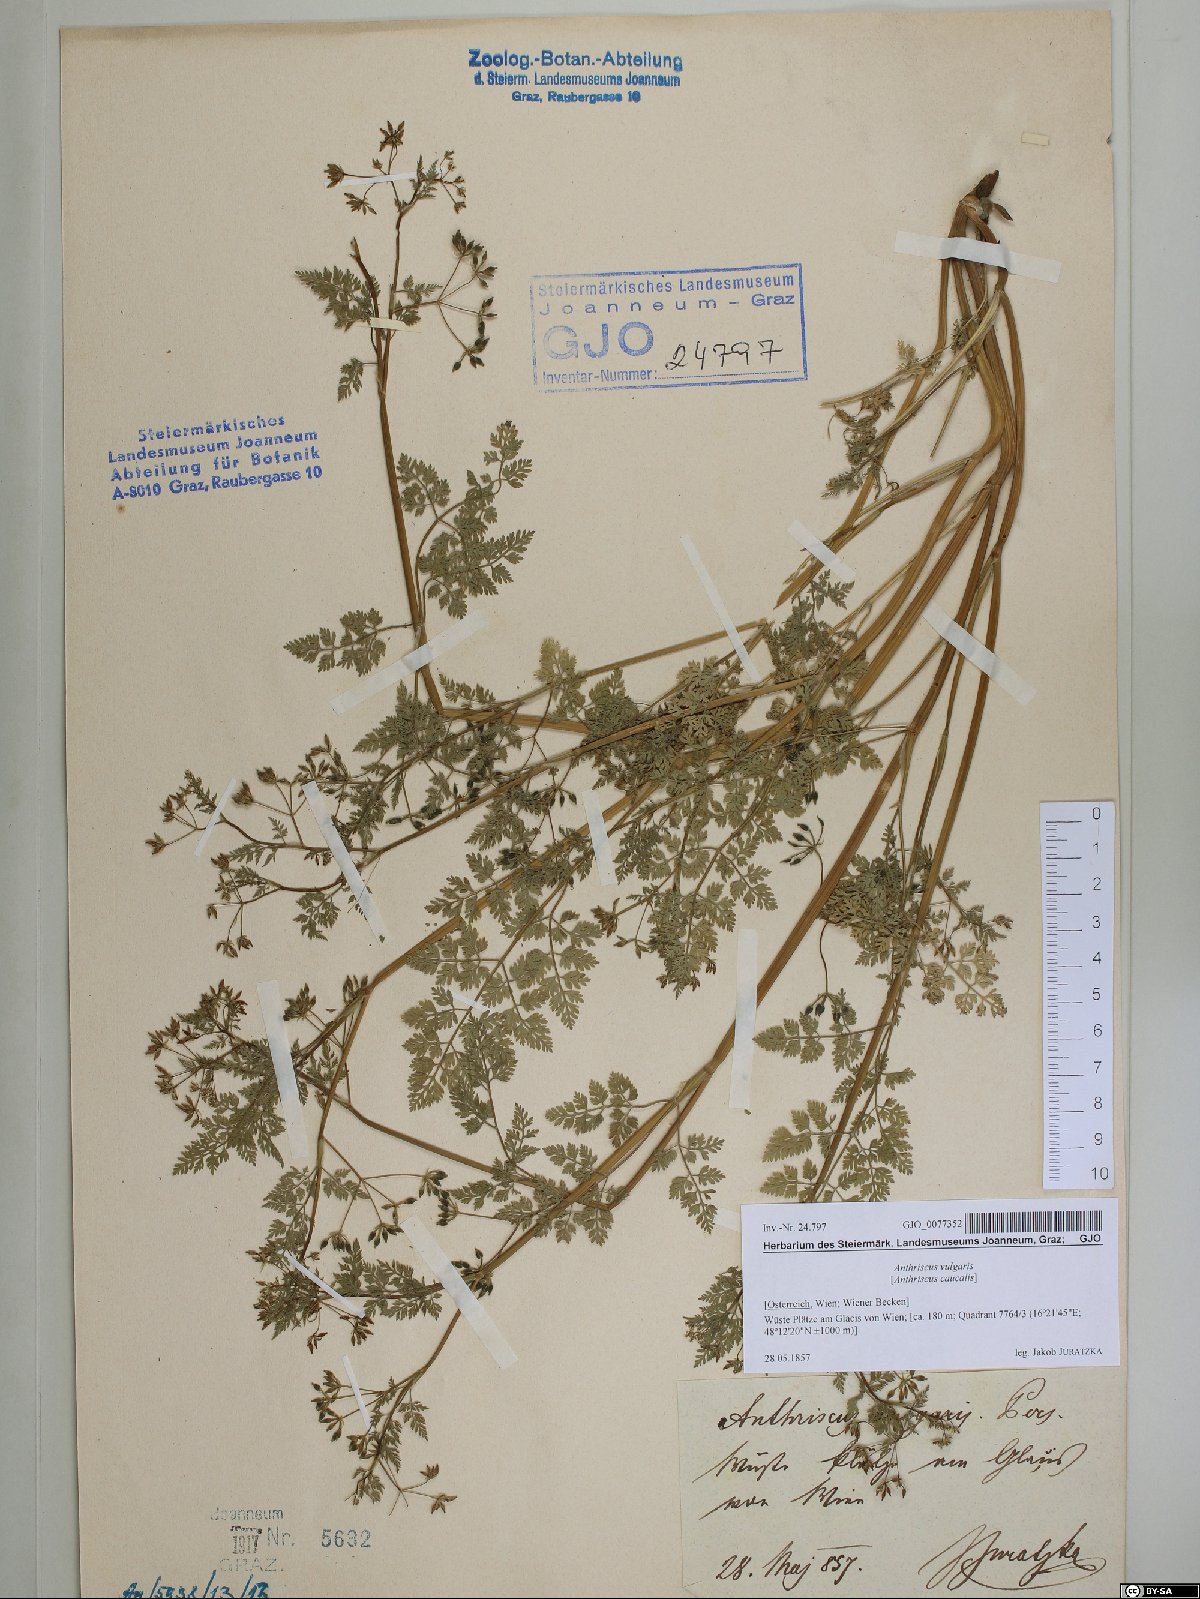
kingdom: Plantae
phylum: Tracheophyta
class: Magnoliopsida
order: Apiales
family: Apiaceae
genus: Anthriscus
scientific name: Anthriscus caucalis
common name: Bur chervil
